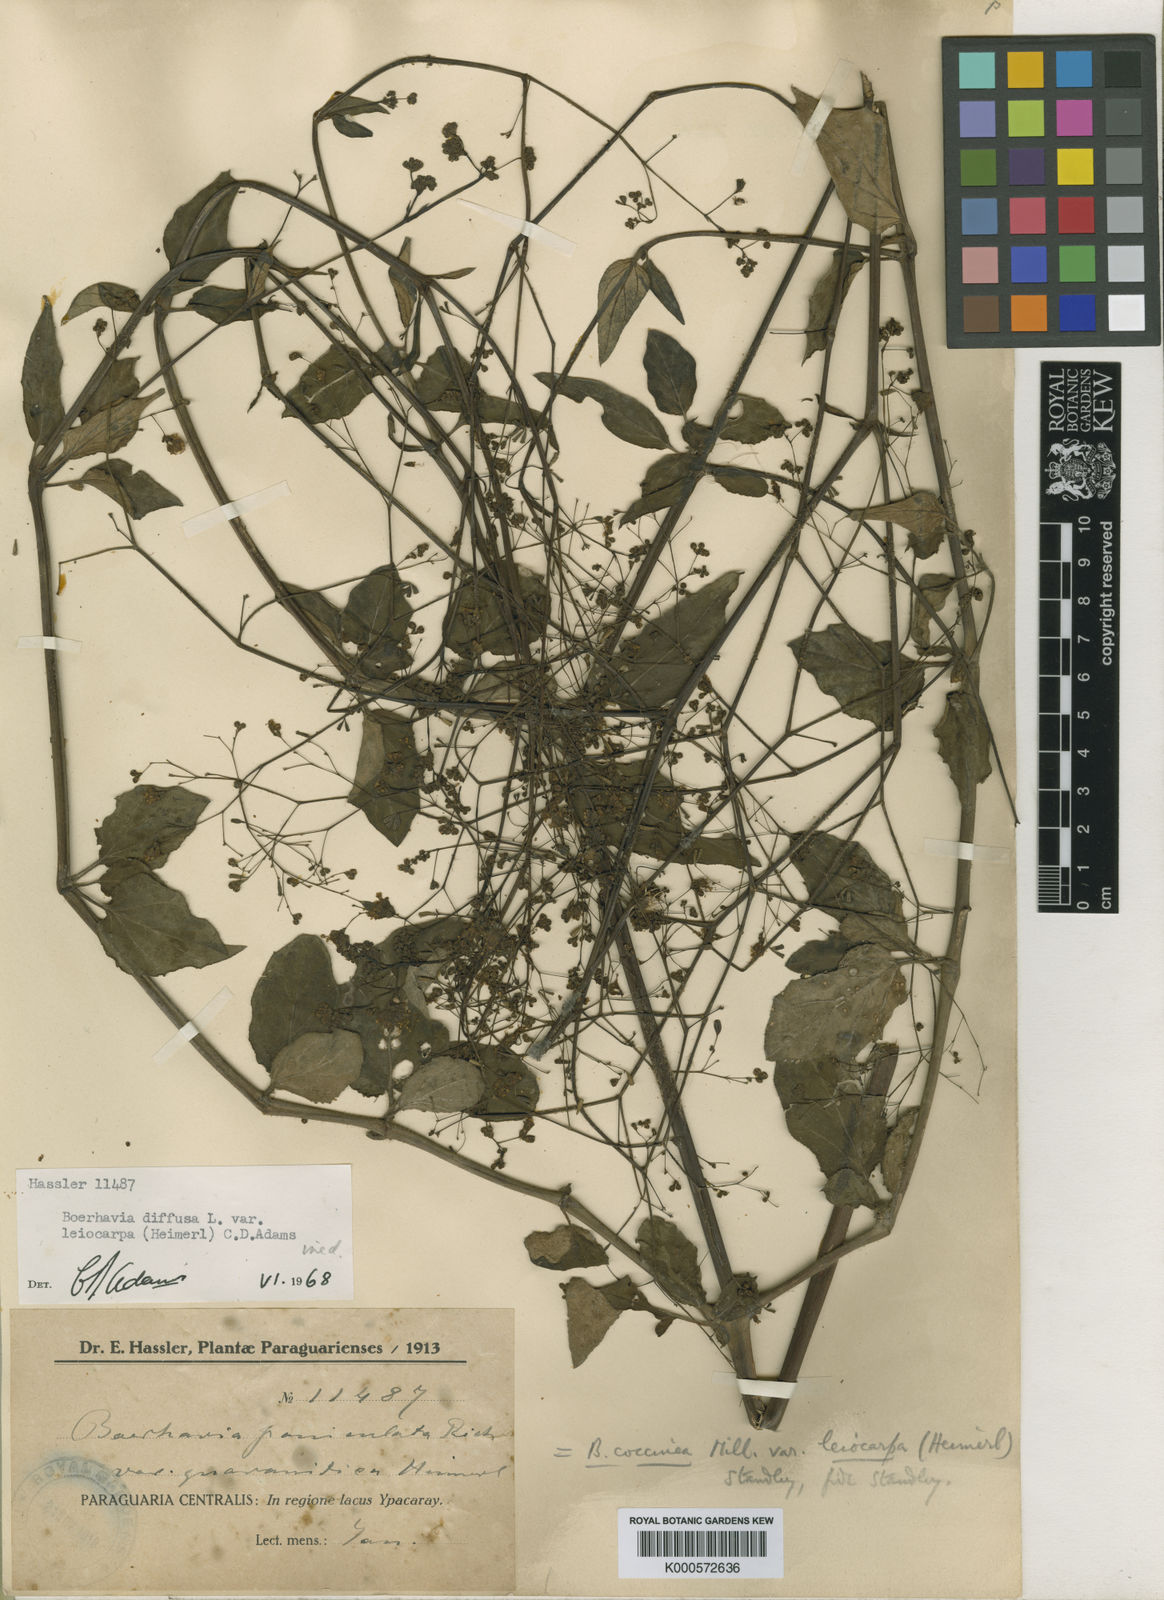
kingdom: Plantae
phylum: Tracheophyta
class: Magnoliopsida
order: Caryophyllales
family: Nyctaginaceae
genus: Boerhavia
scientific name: Boerhavia diffusa
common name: Red spiderling
